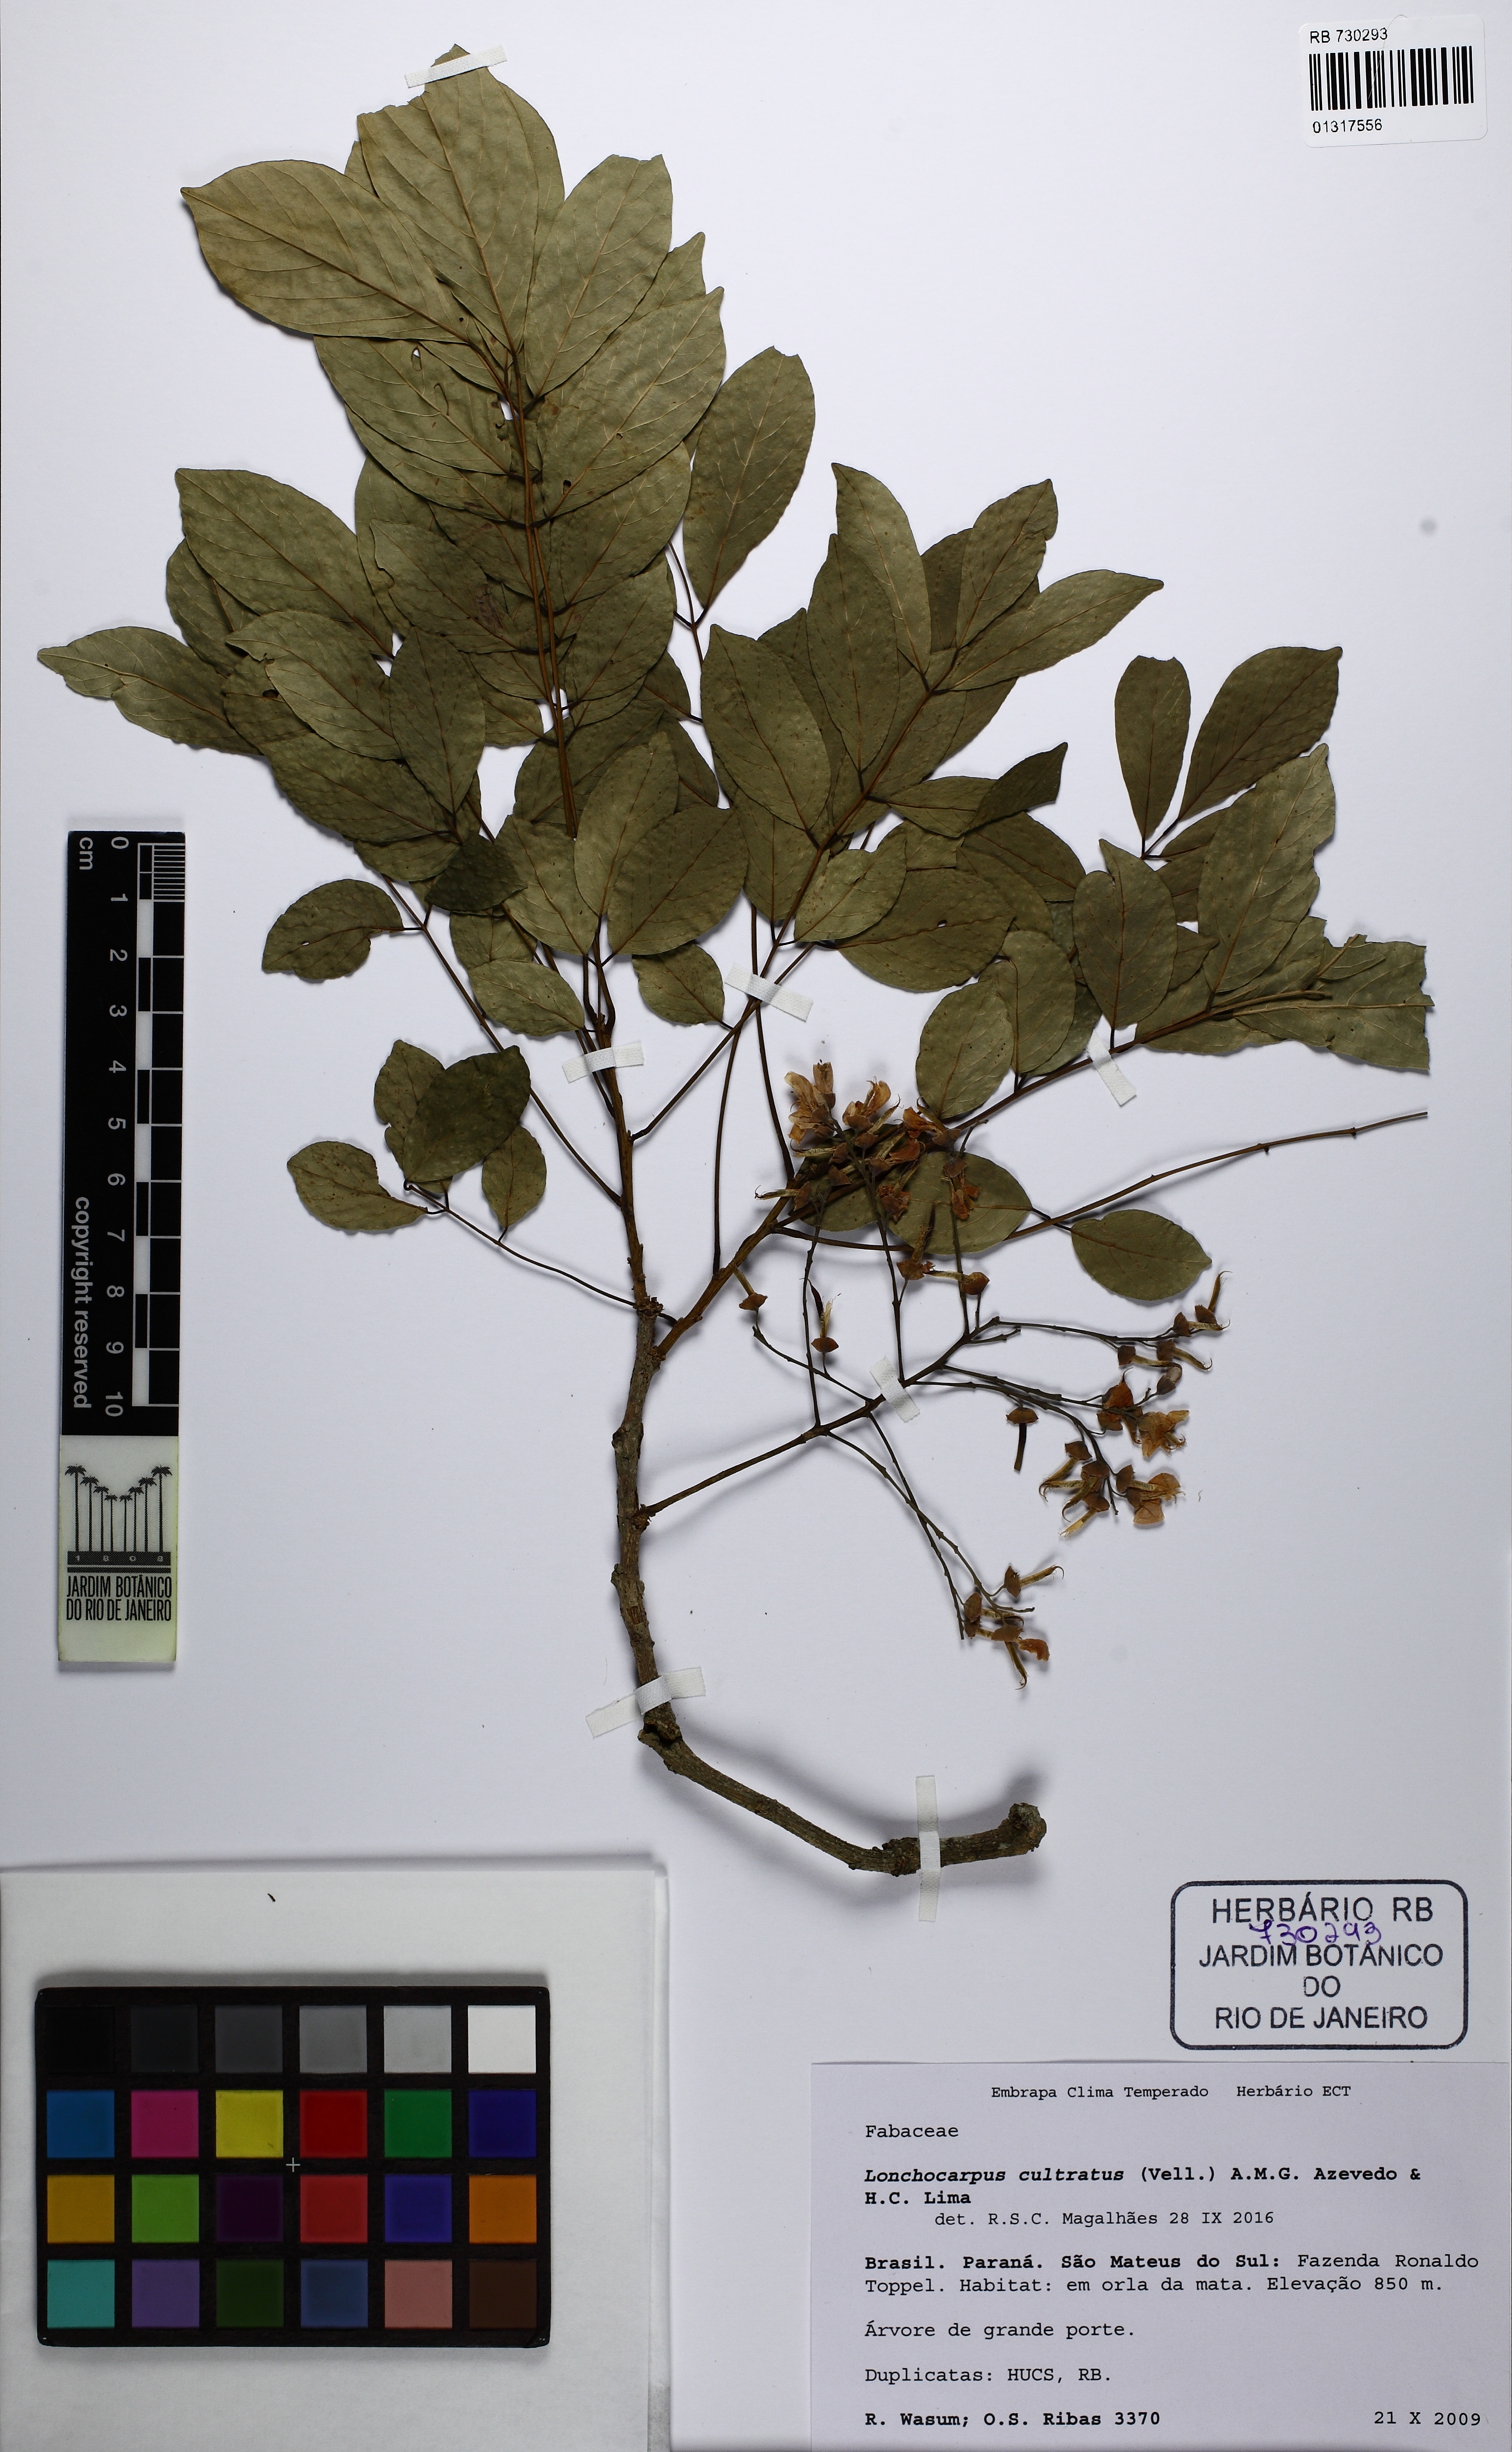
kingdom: Plantae
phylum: Tracheophyta
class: Magnoliopsida
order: Fabales
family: Fabaceae
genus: Lonchocarpus
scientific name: Lonchocarpus cultratus
